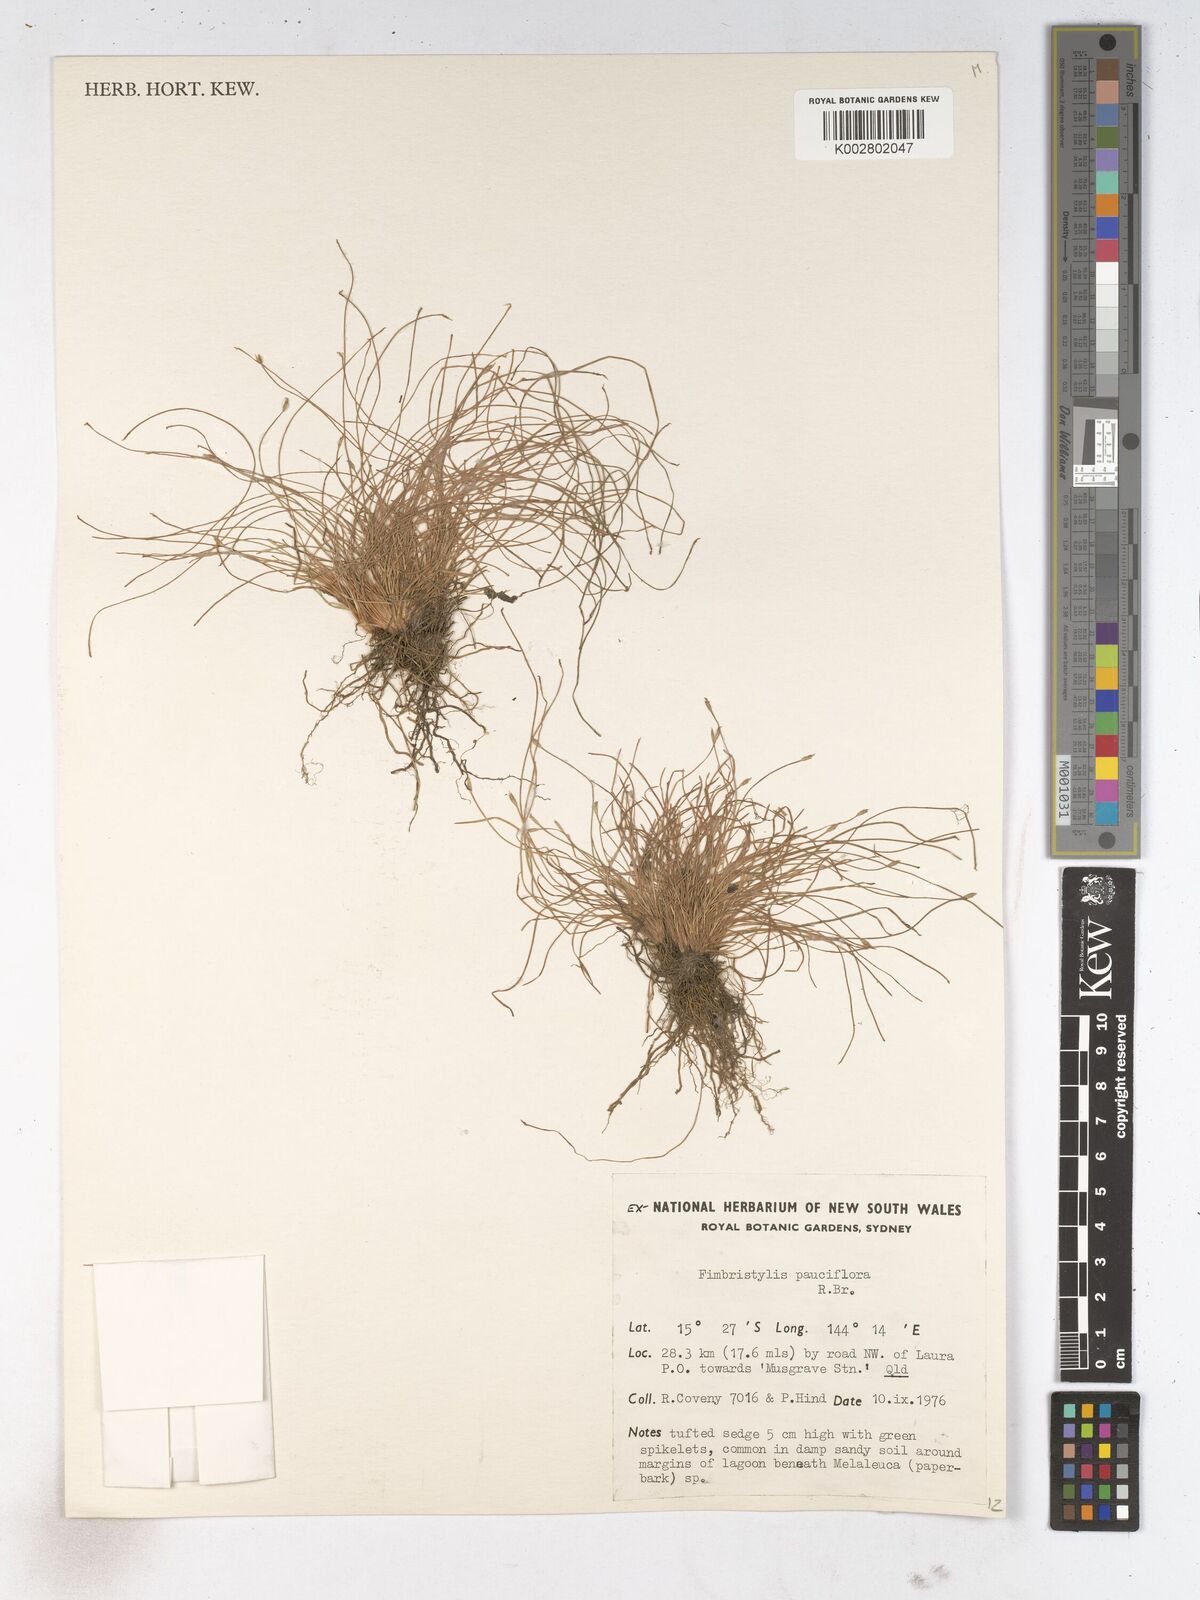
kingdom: Plantae
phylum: Tracheophyta
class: Liliopsida
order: Poales
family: Cyperaceae
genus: Fimbristylis
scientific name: Fimbristylis pauciflora
